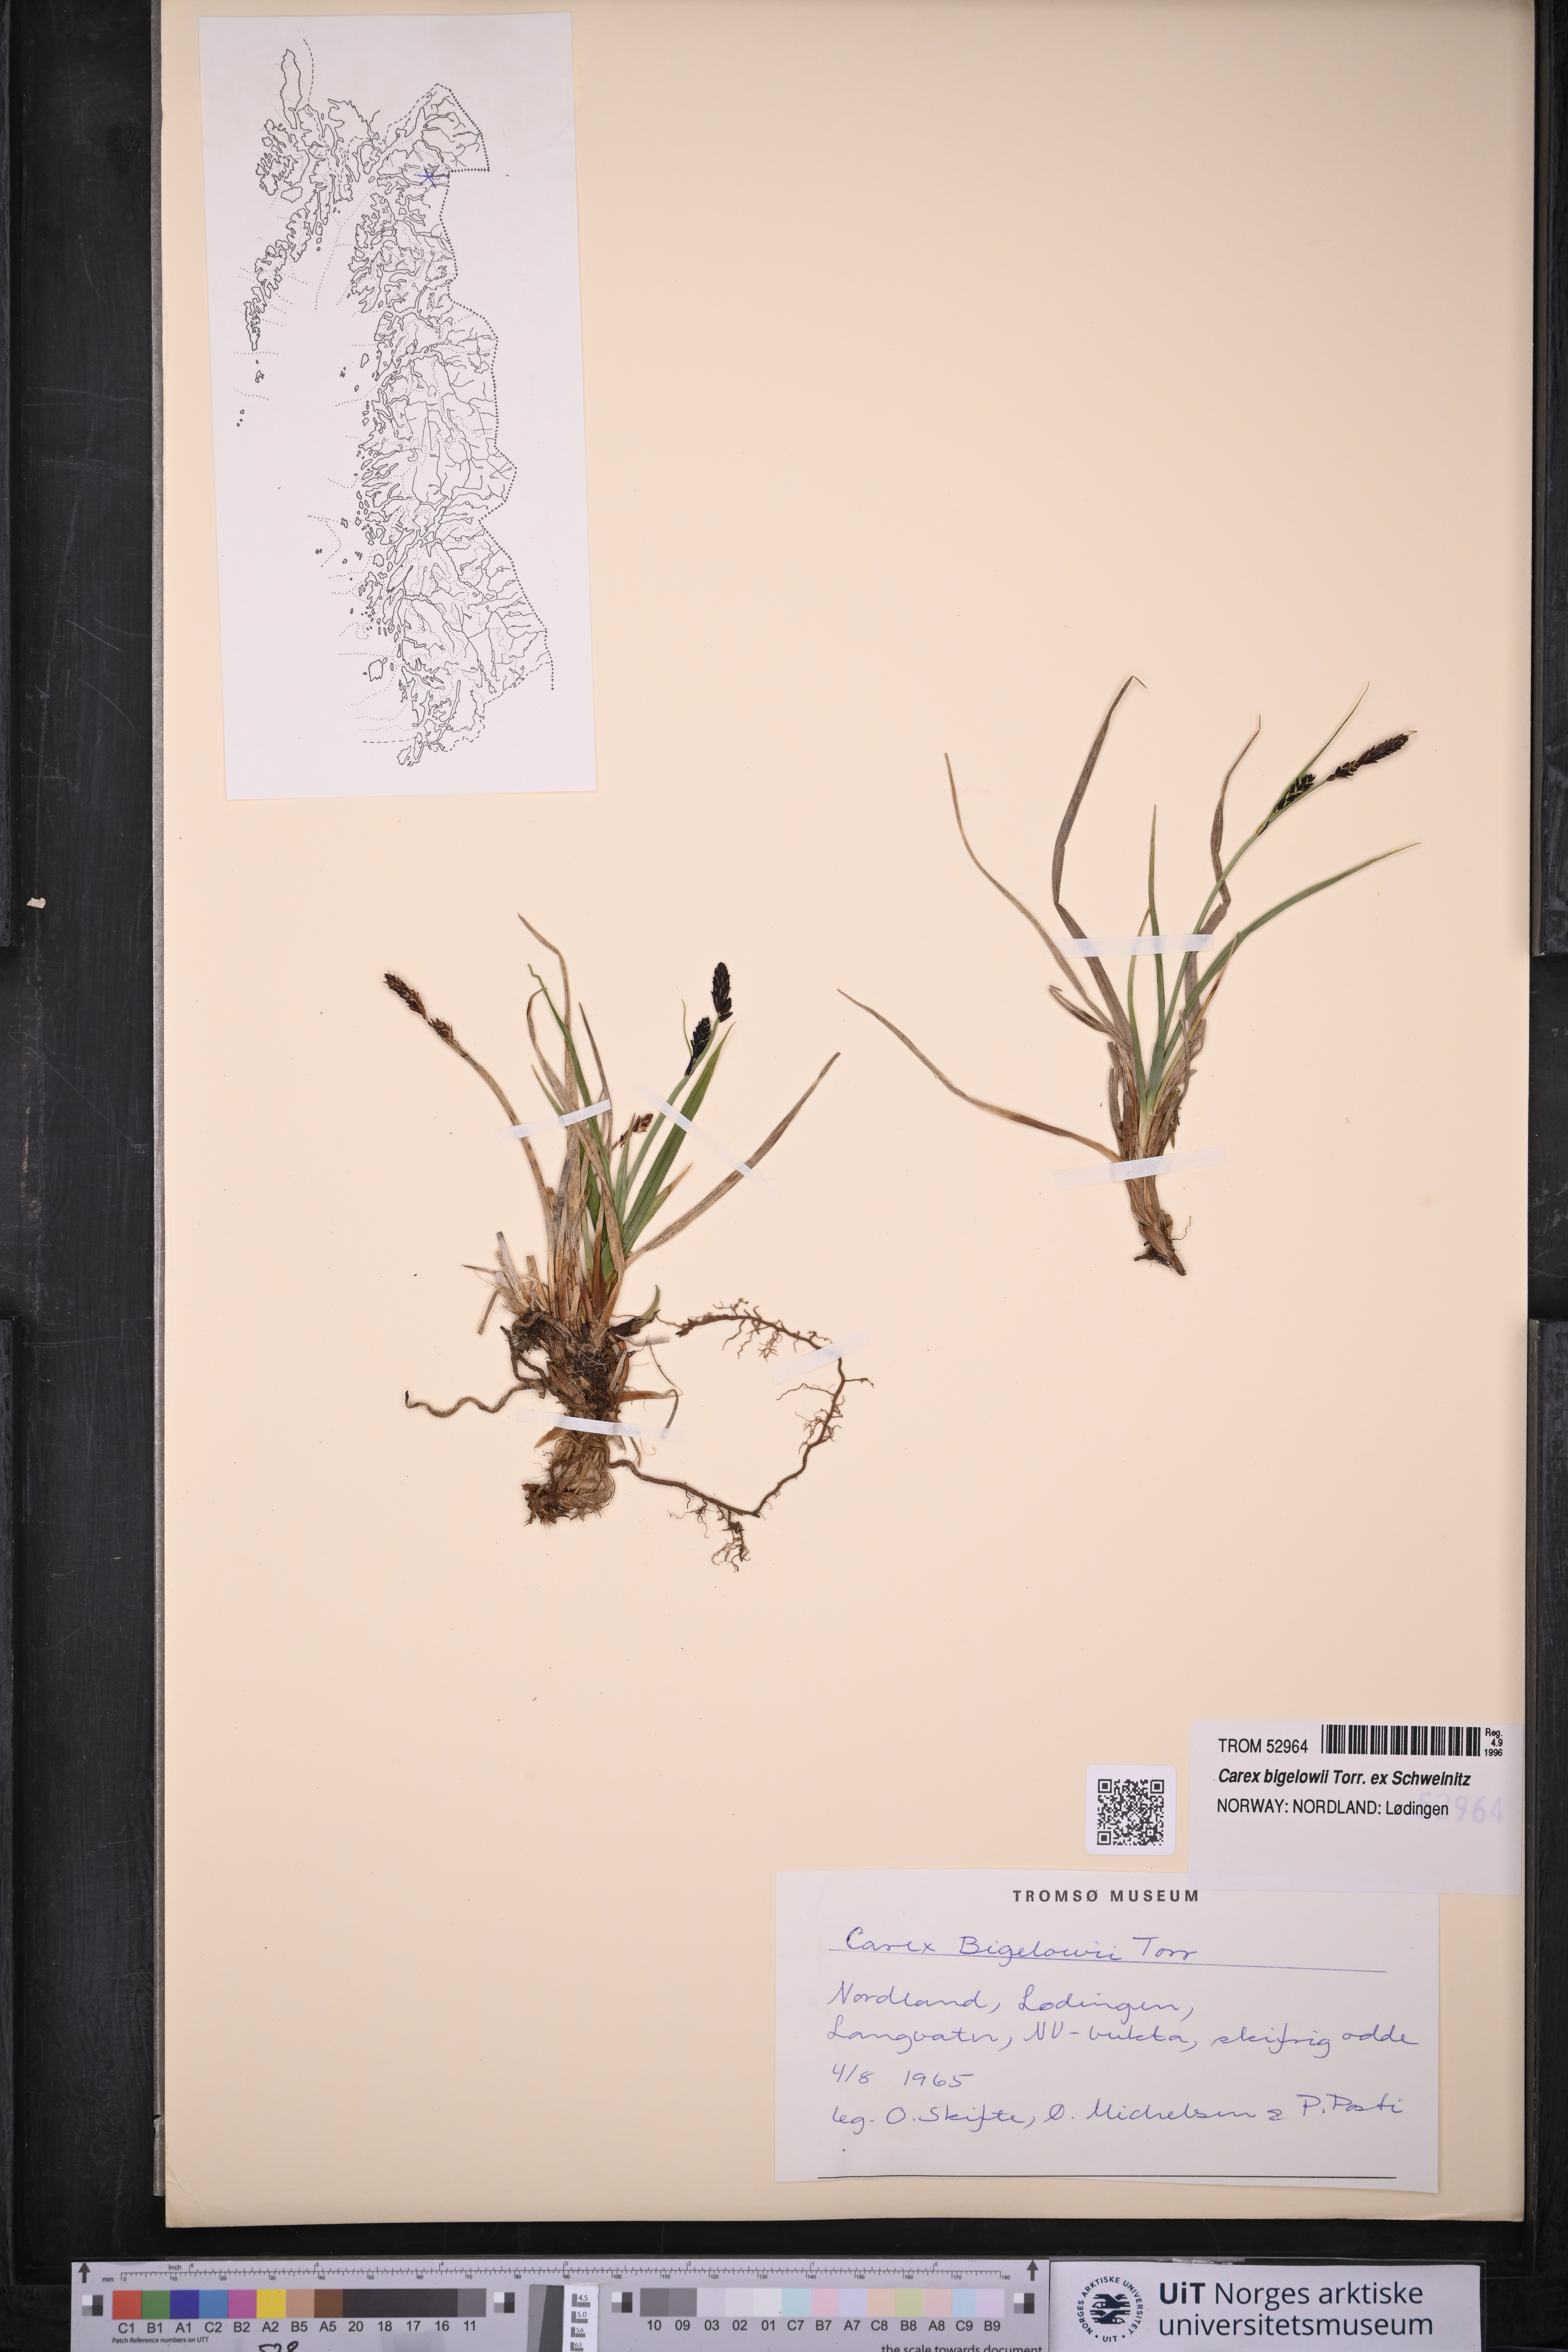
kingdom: Plantae
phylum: Tracheophyta
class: Liliopsida
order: Poales
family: Cyperaceae
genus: Carex
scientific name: Carex bigelowii
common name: Stiff sedge
